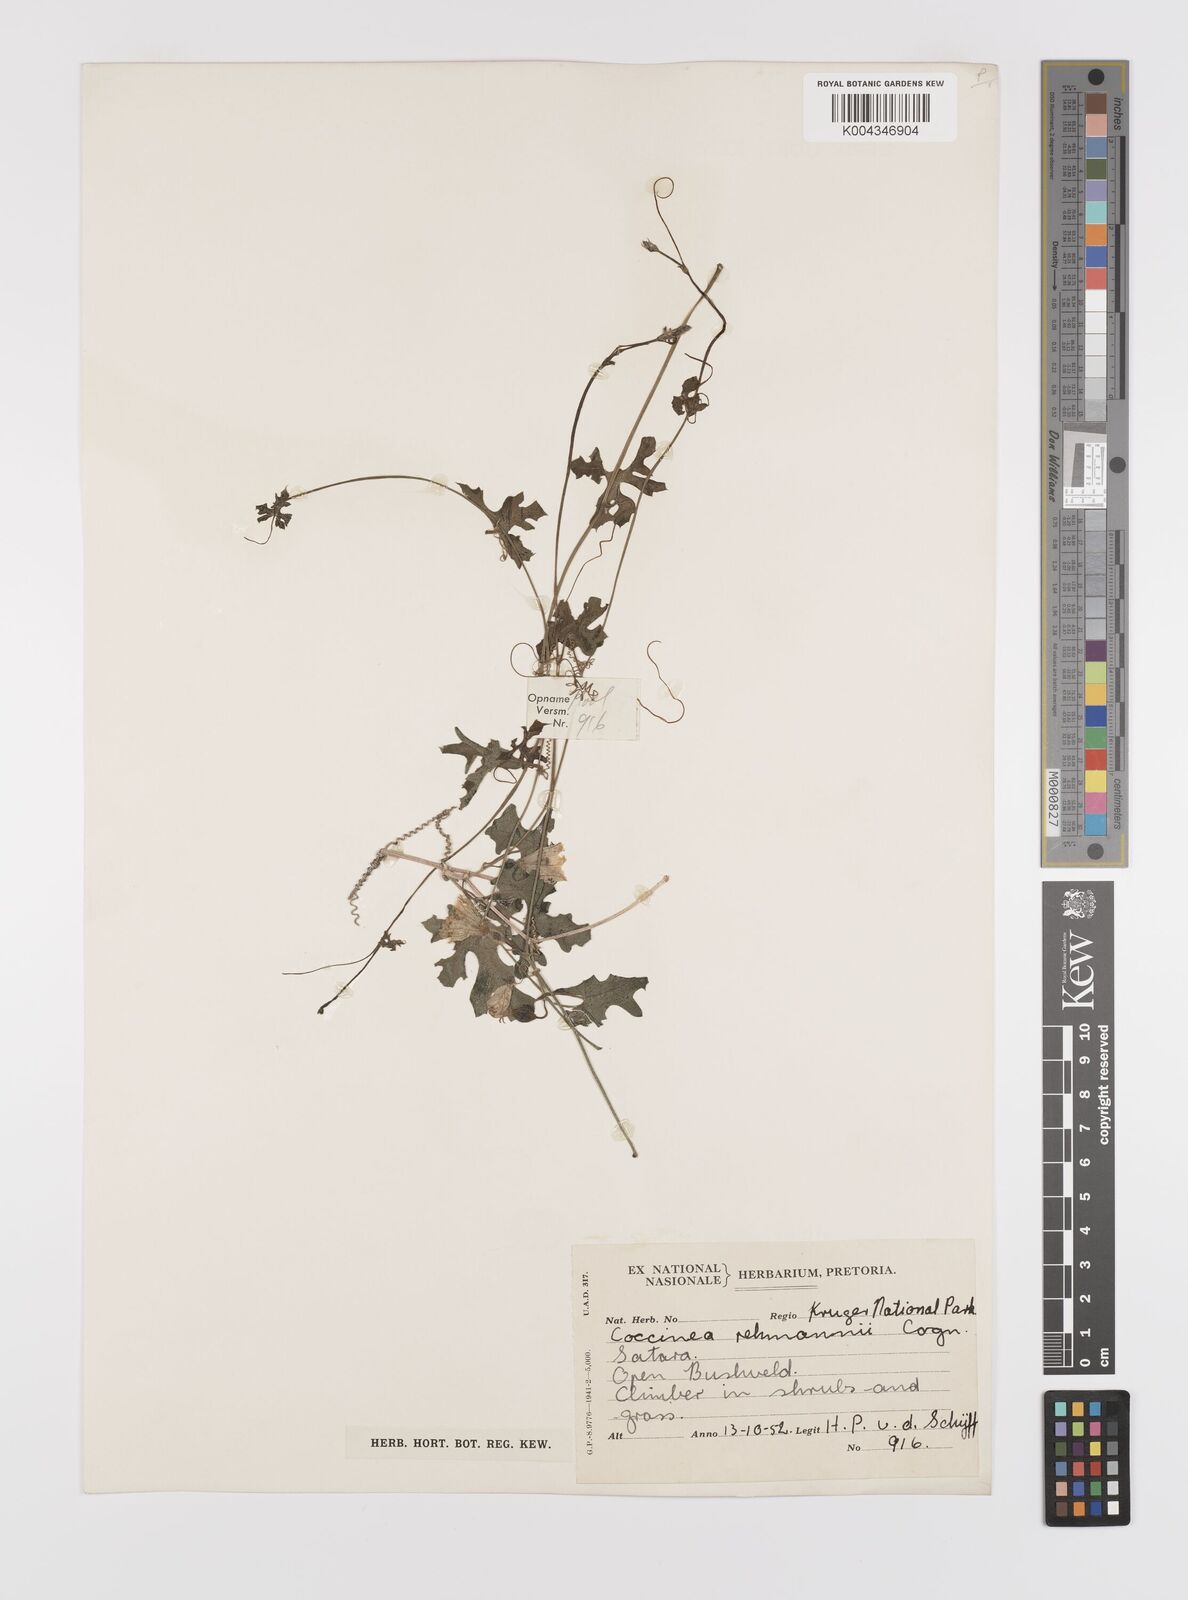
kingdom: Plantae
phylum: Tracheophyta
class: Magnoliopsida
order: Cucurbitales
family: Cucurbitaceae
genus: Coccinia
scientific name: Coccinia rehmannii
